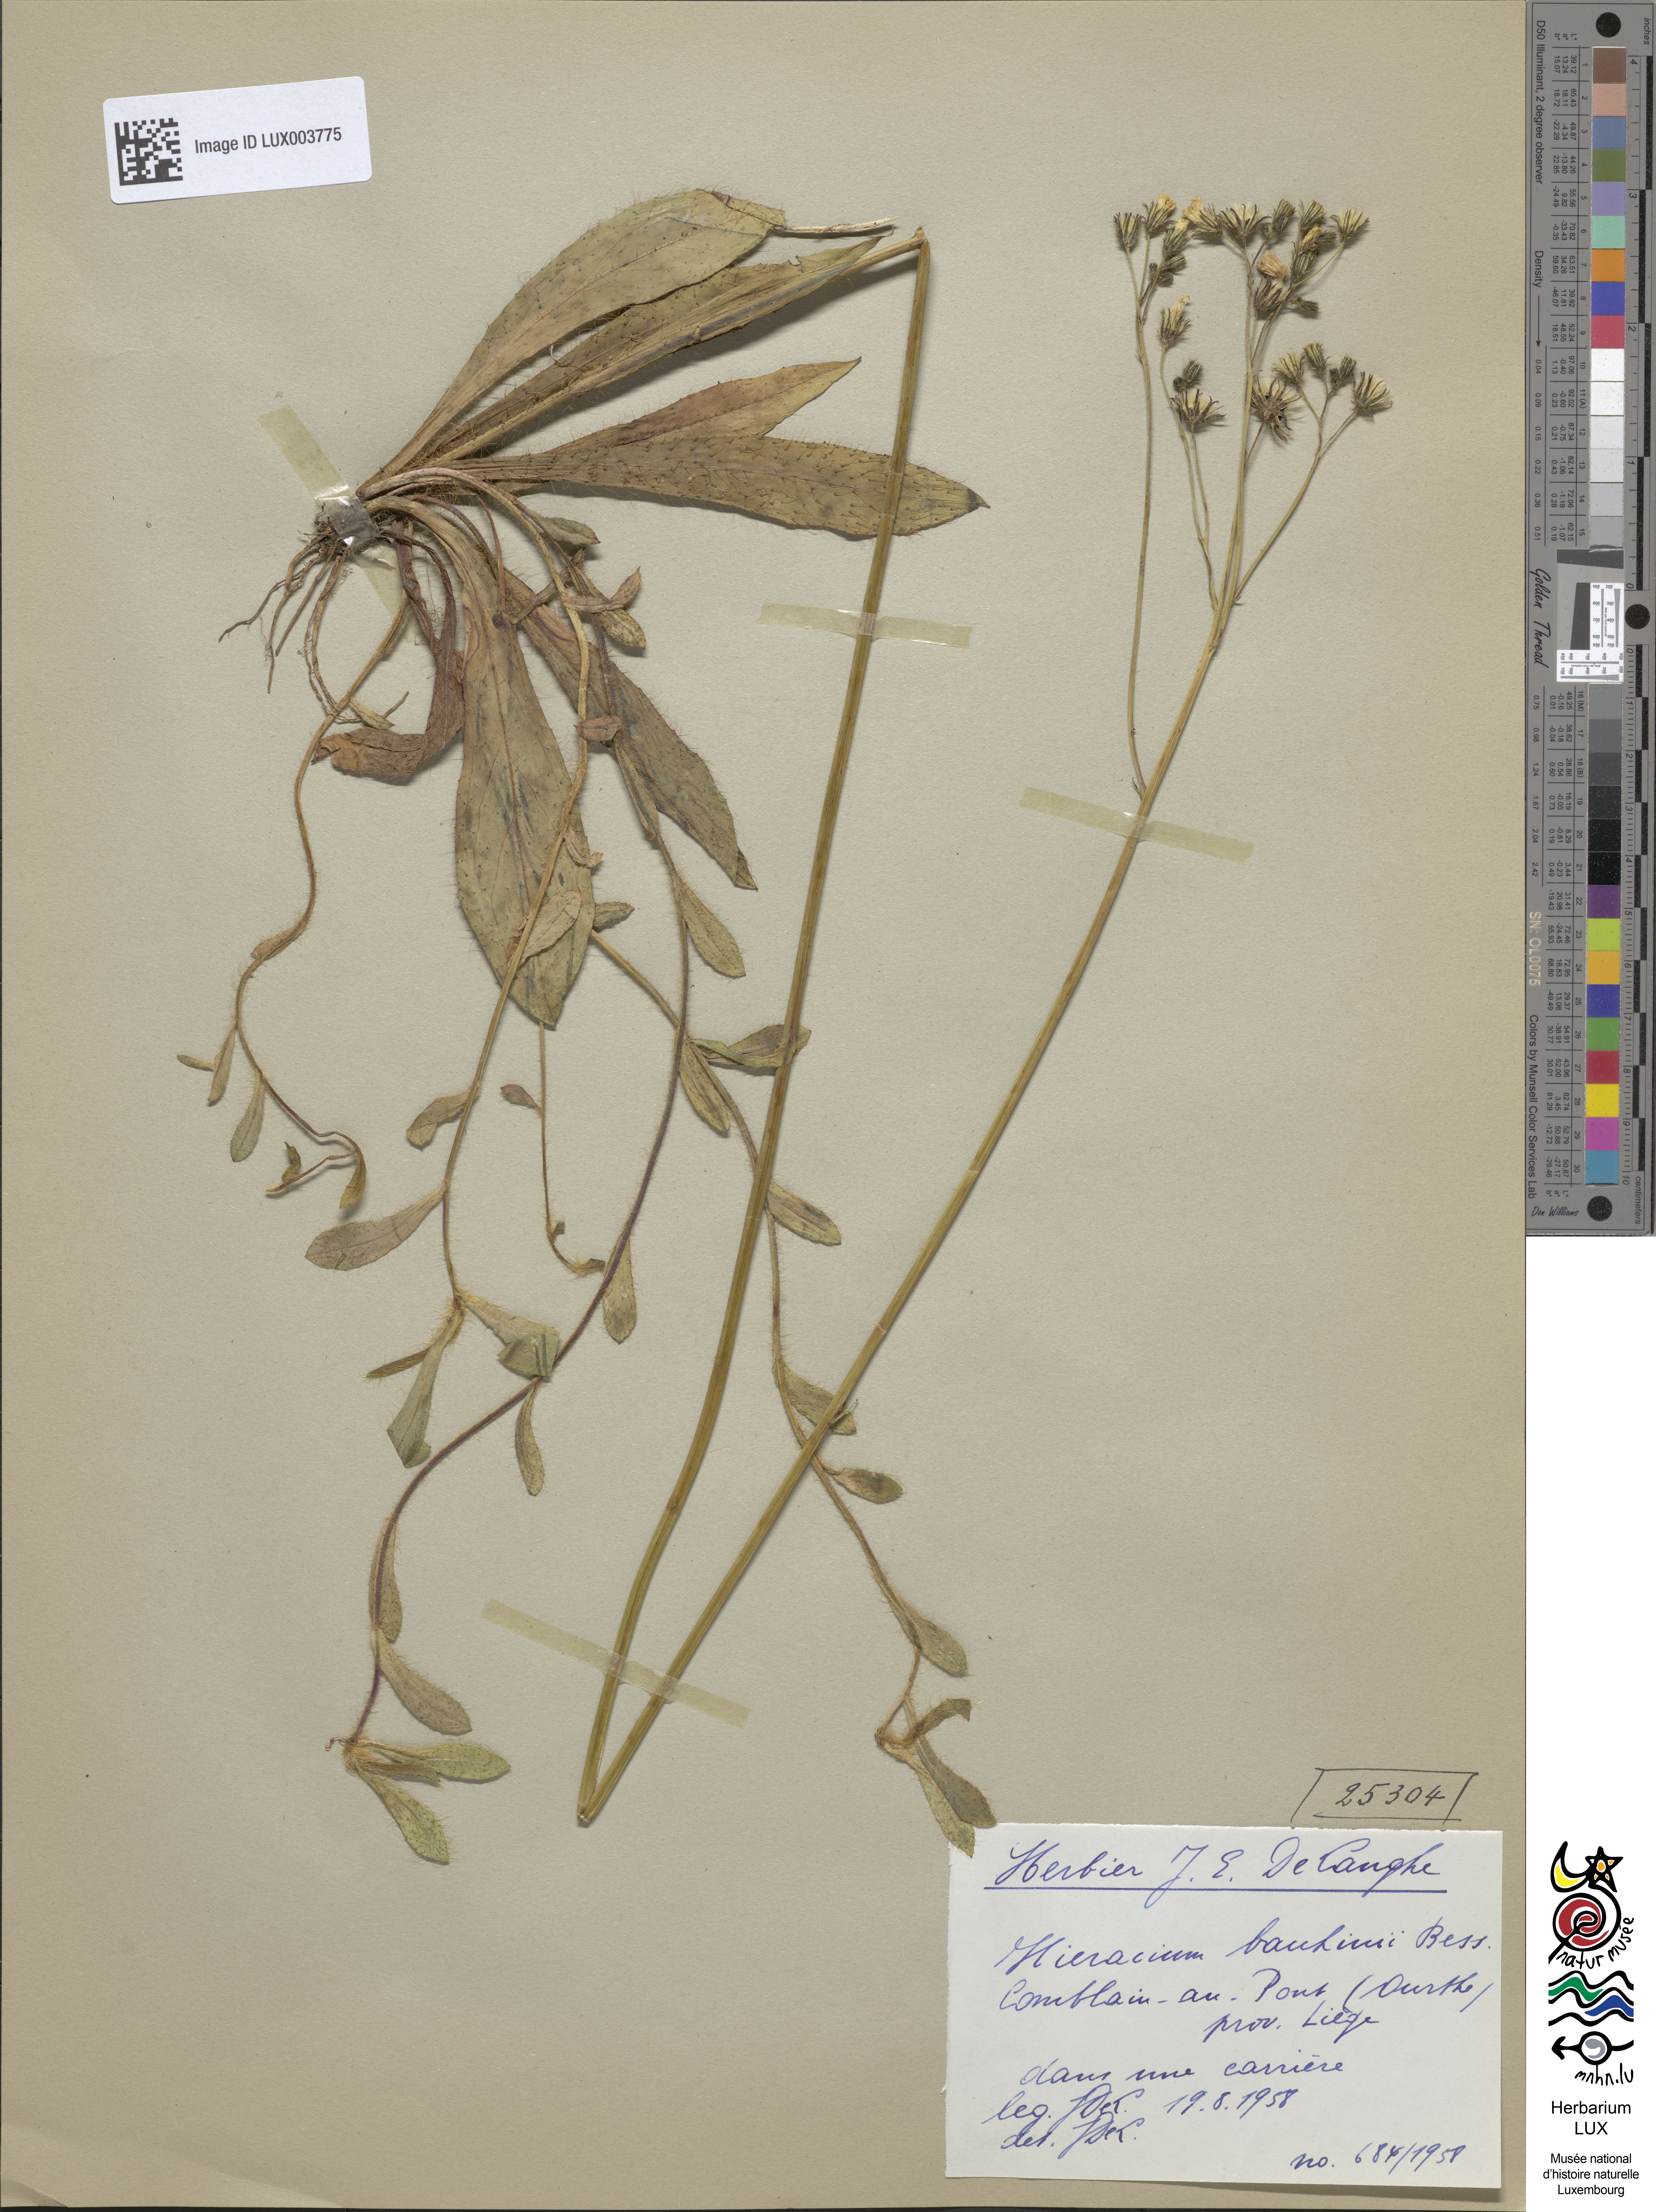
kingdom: Plantae
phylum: Tracheophyta
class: Magnoliopsida
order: Asterales
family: Asteraceae
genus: Pilosella
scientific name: Pilosella bauhini
